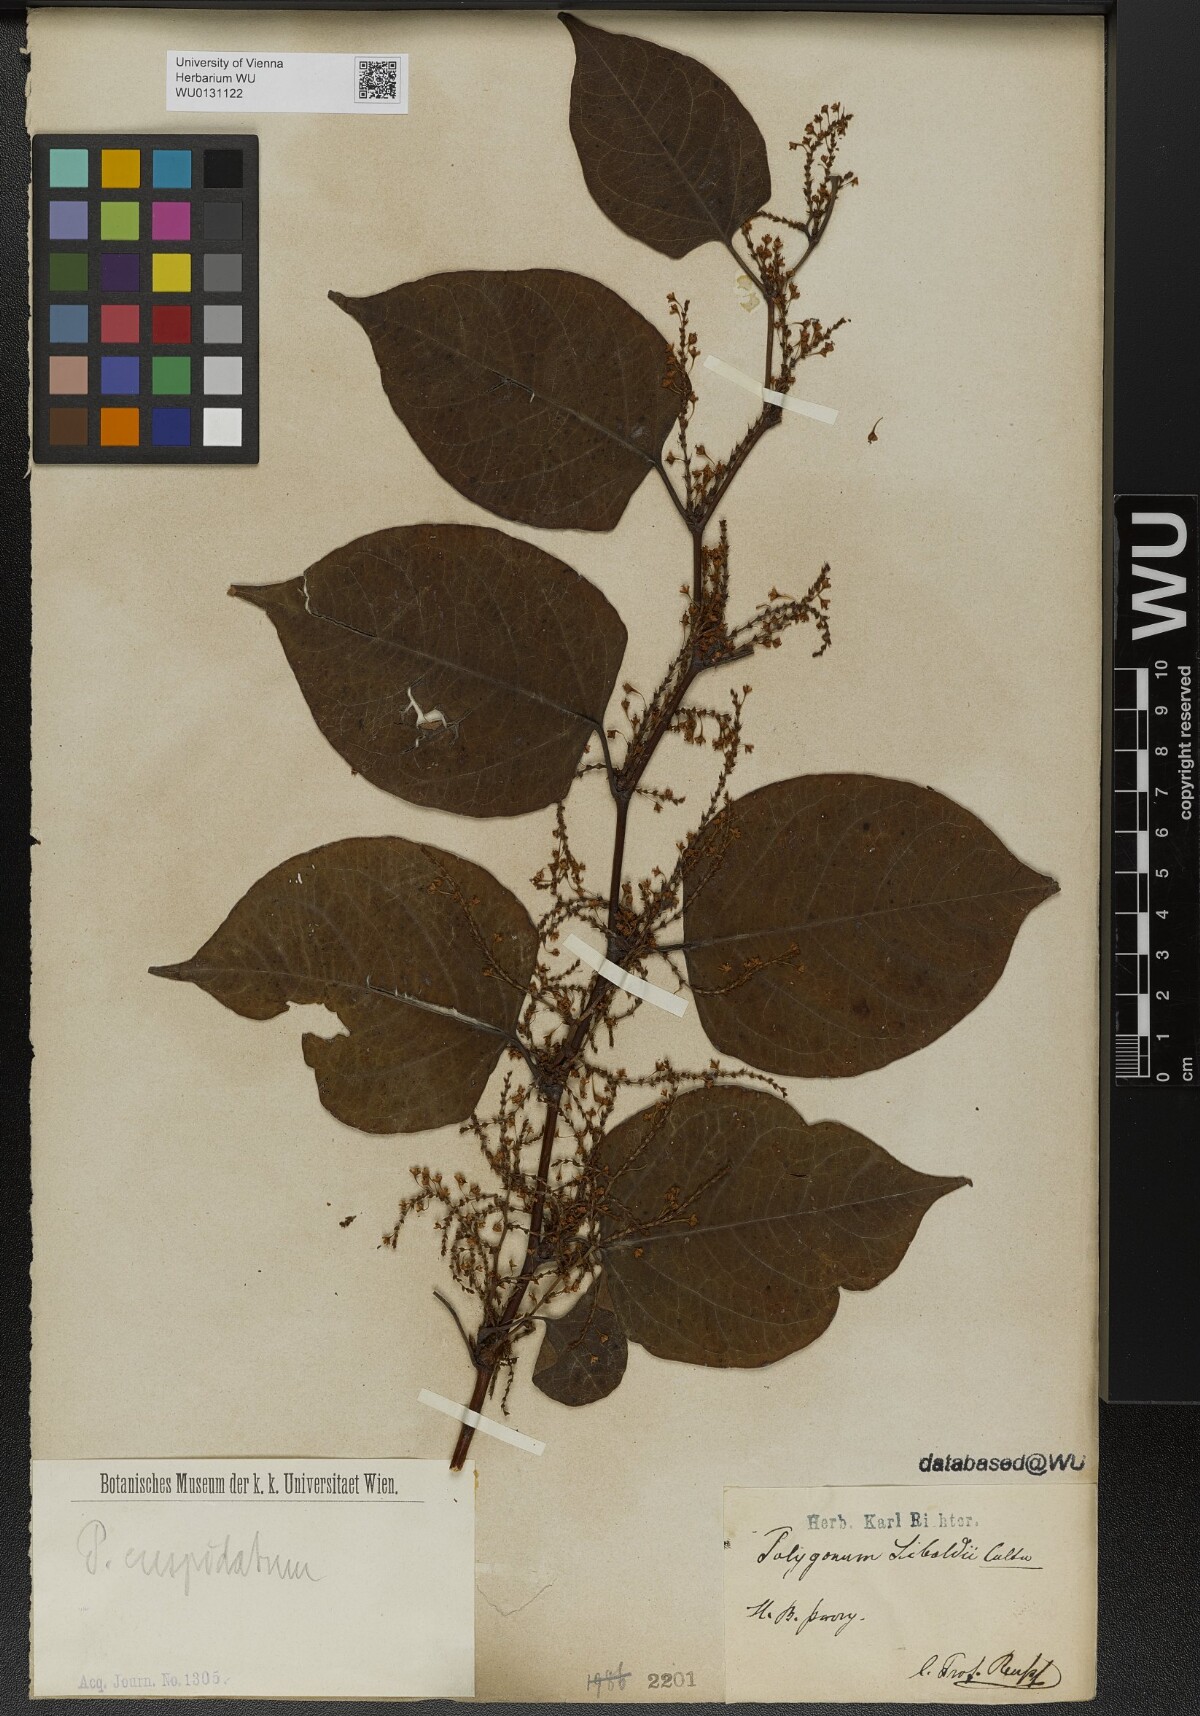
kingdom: Plantae
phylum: Tracheophyta
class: Magnoliopsida
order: Caryophyllales
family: Polygonaceae
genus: Reynoutria
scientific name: Reynoutria japonica
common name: Japanese knotweed
